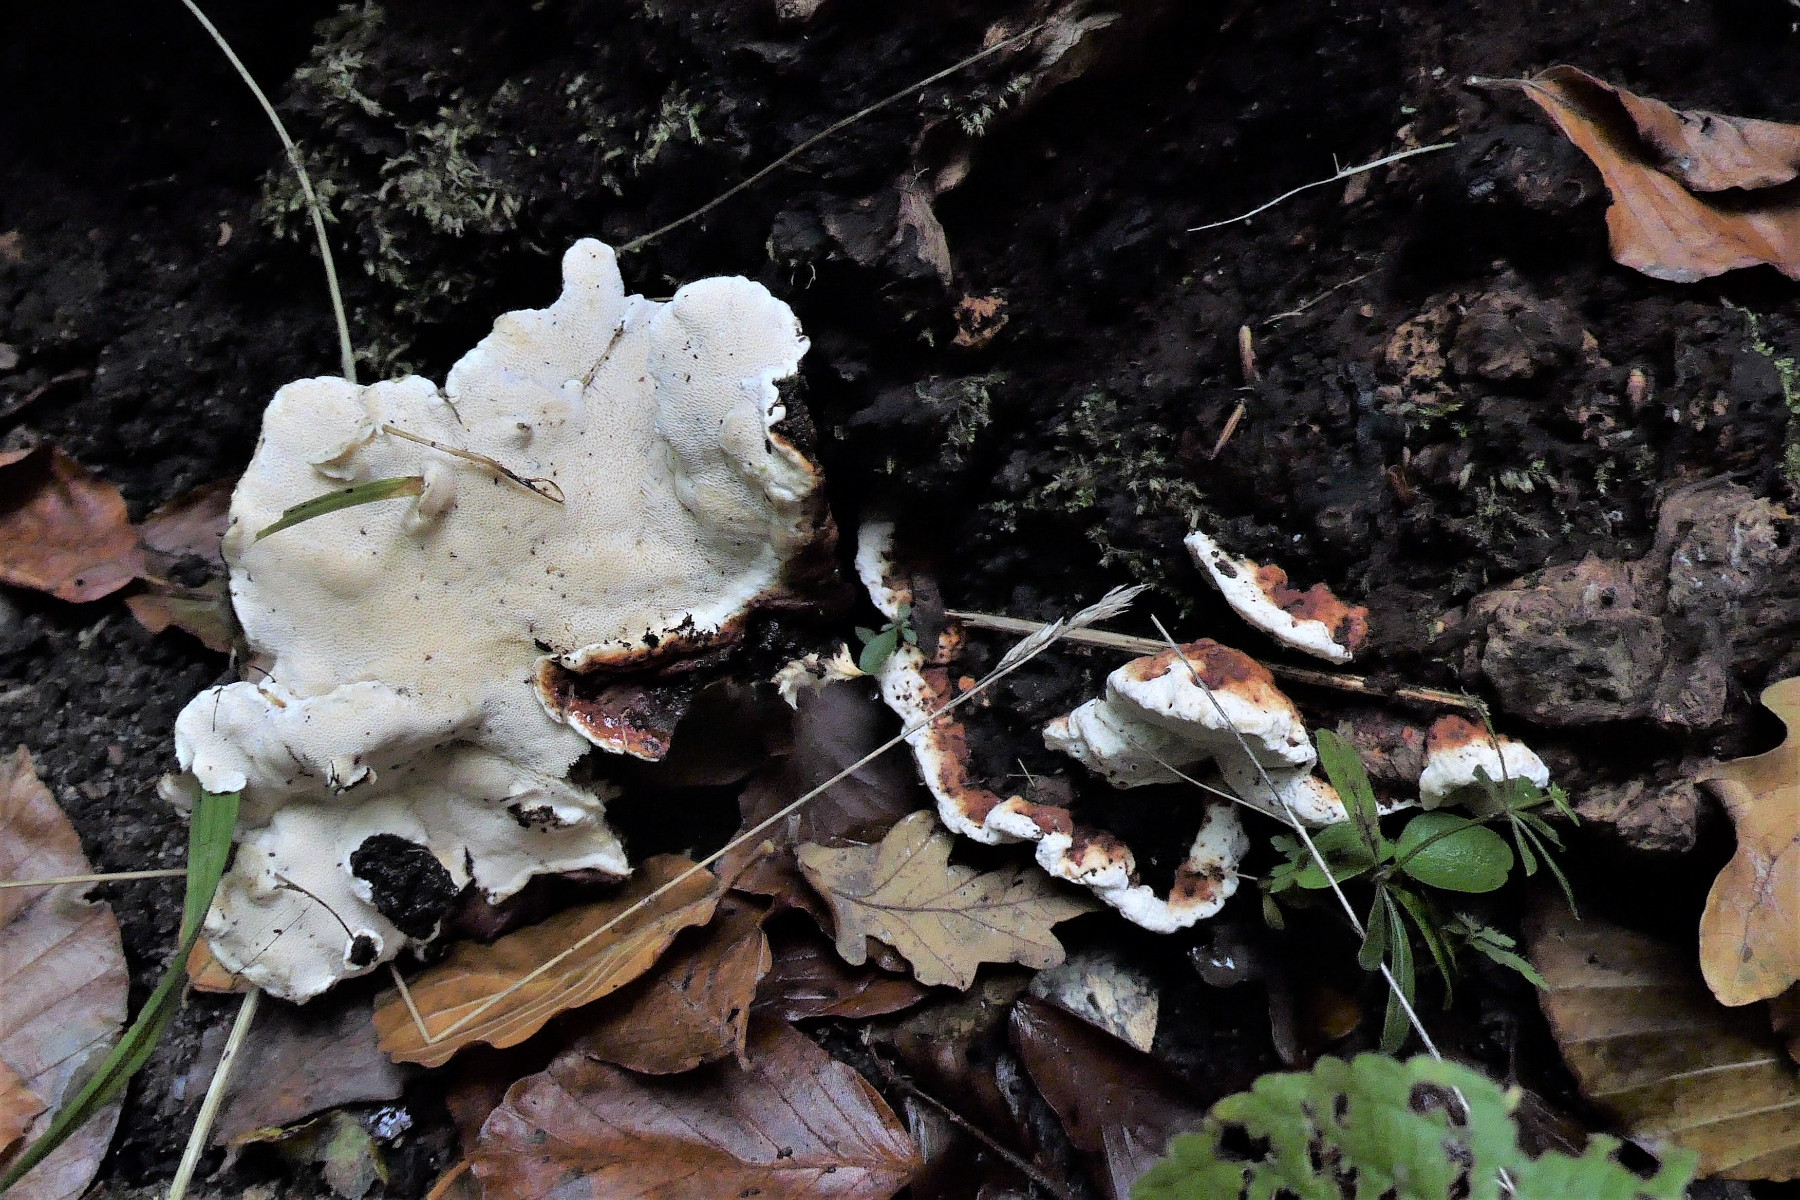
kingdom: Fungi
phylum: Basidiomycota
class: Agaricomycetes
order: Russulales
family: Bondarzewiaceae
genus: Heterobasidion
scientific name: Heterobasidion annosum
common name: almindelig rodfordærver
